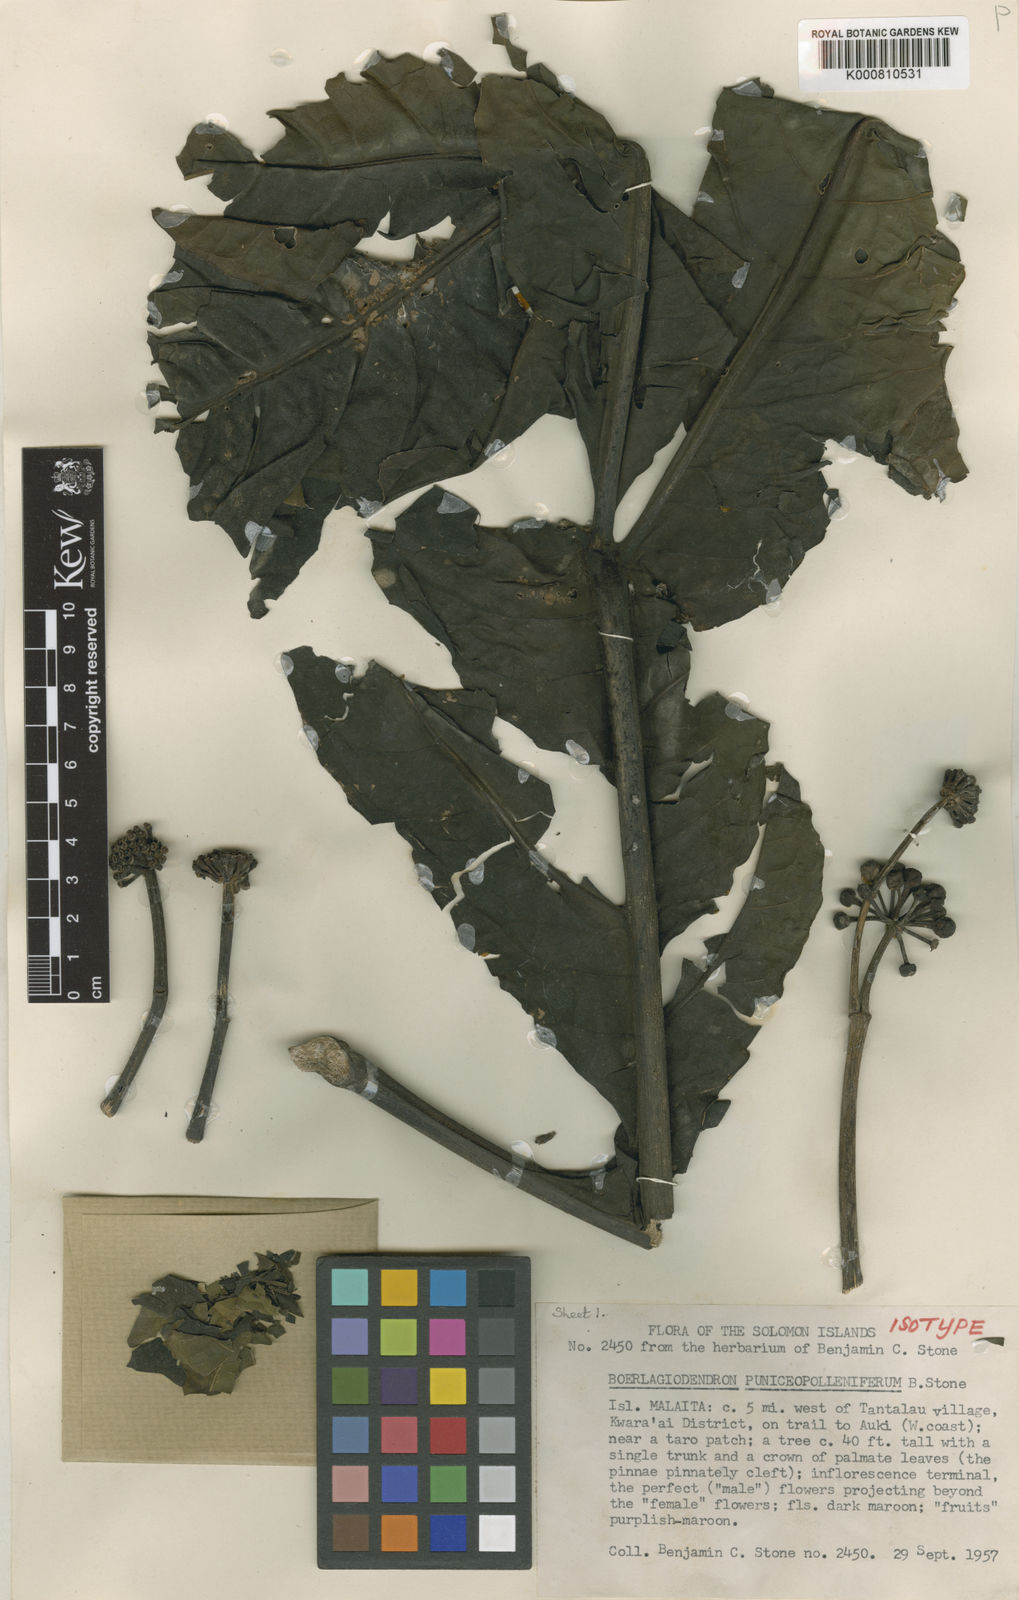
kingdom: Plantae
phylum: Tracheophyta
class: Magnoliopsida
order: Apiales
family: Araliaceae
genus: Osmoxylon
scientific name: Osmoxylon puniceopolleniferum
